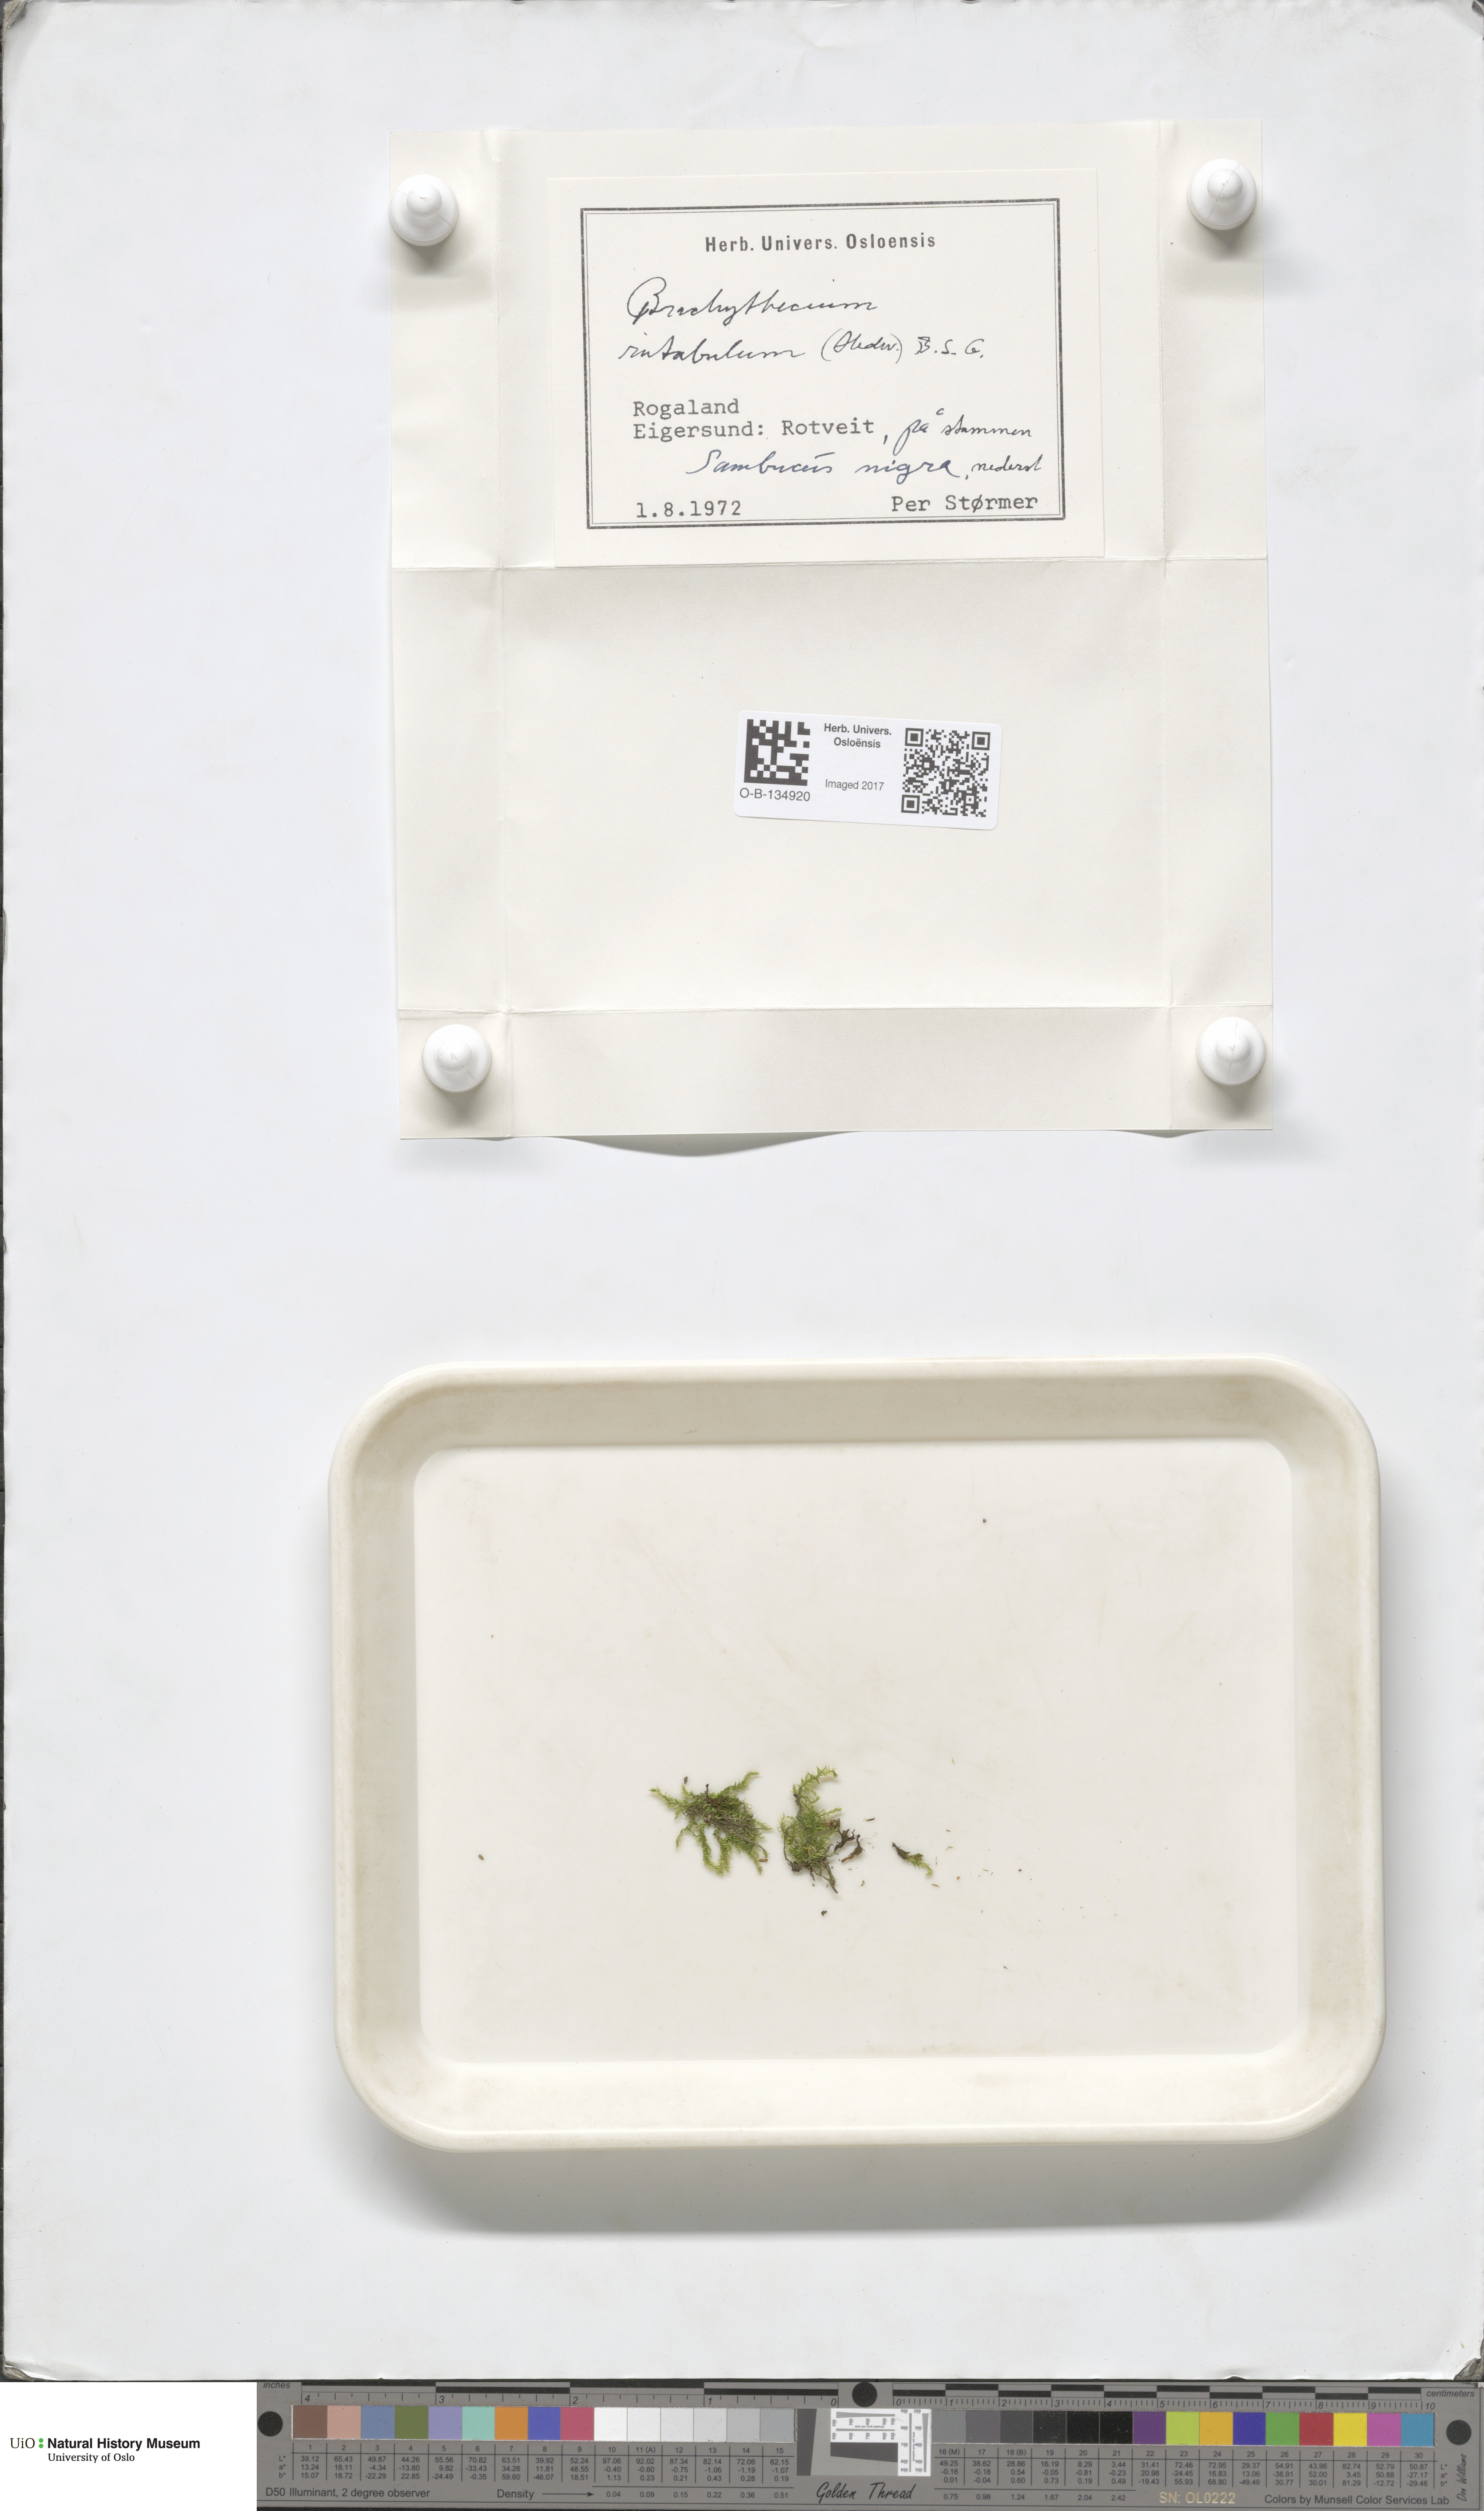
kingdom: Plantae
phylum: Bryophyta
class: Bryopsida
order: Hypnales
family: Brachytheciaceae
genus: Brachythecium
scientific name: Brachythecium rutabulum
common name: Rough-stalked feather-moss
